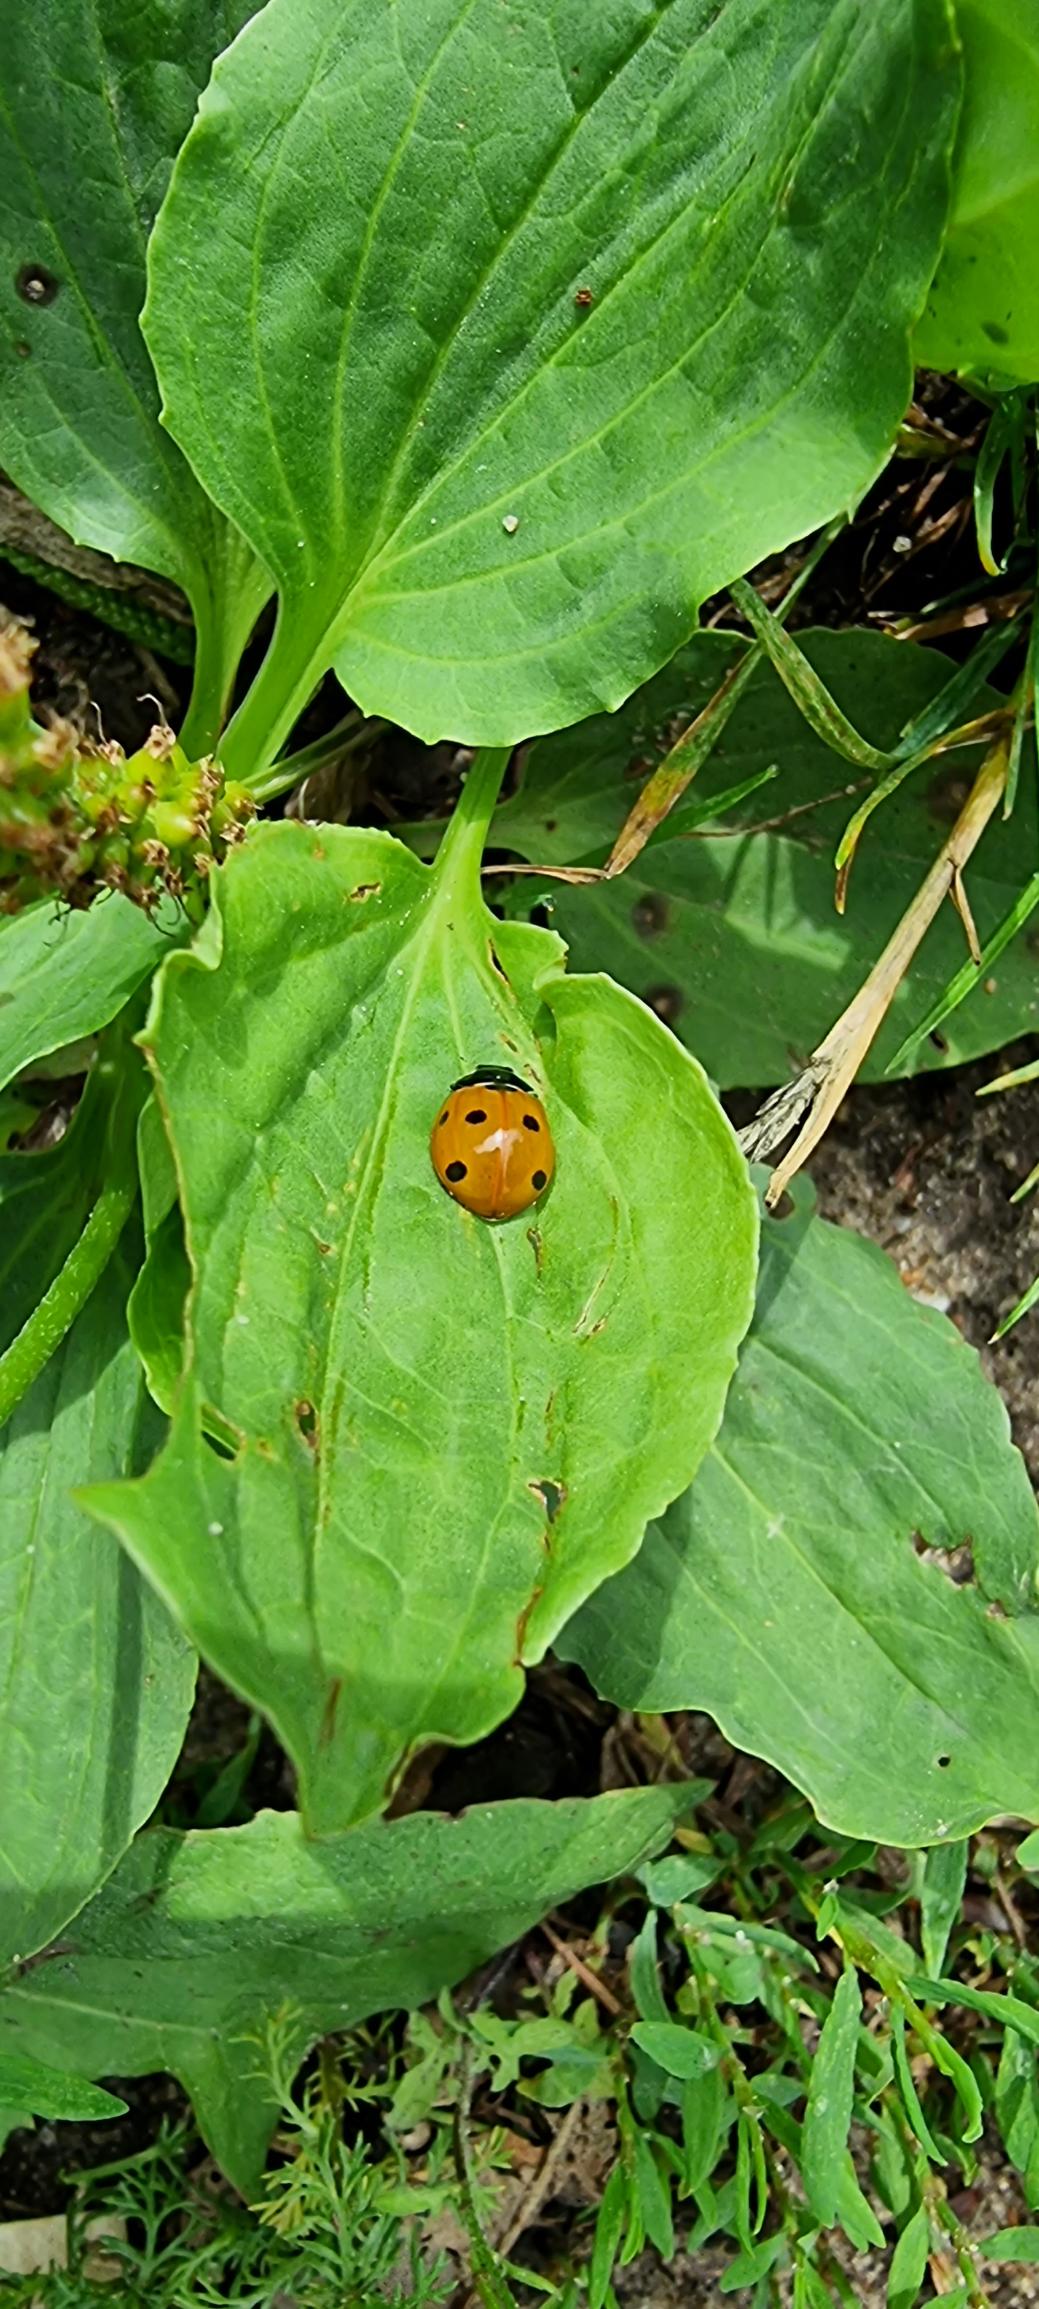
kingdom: Animalia
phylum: Arthropoda
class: Insecta
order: Coleoptera
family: Coccinellidae
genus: Coccinella
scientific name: Coccinella septempunctata
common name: Syvplettet mariehøne
